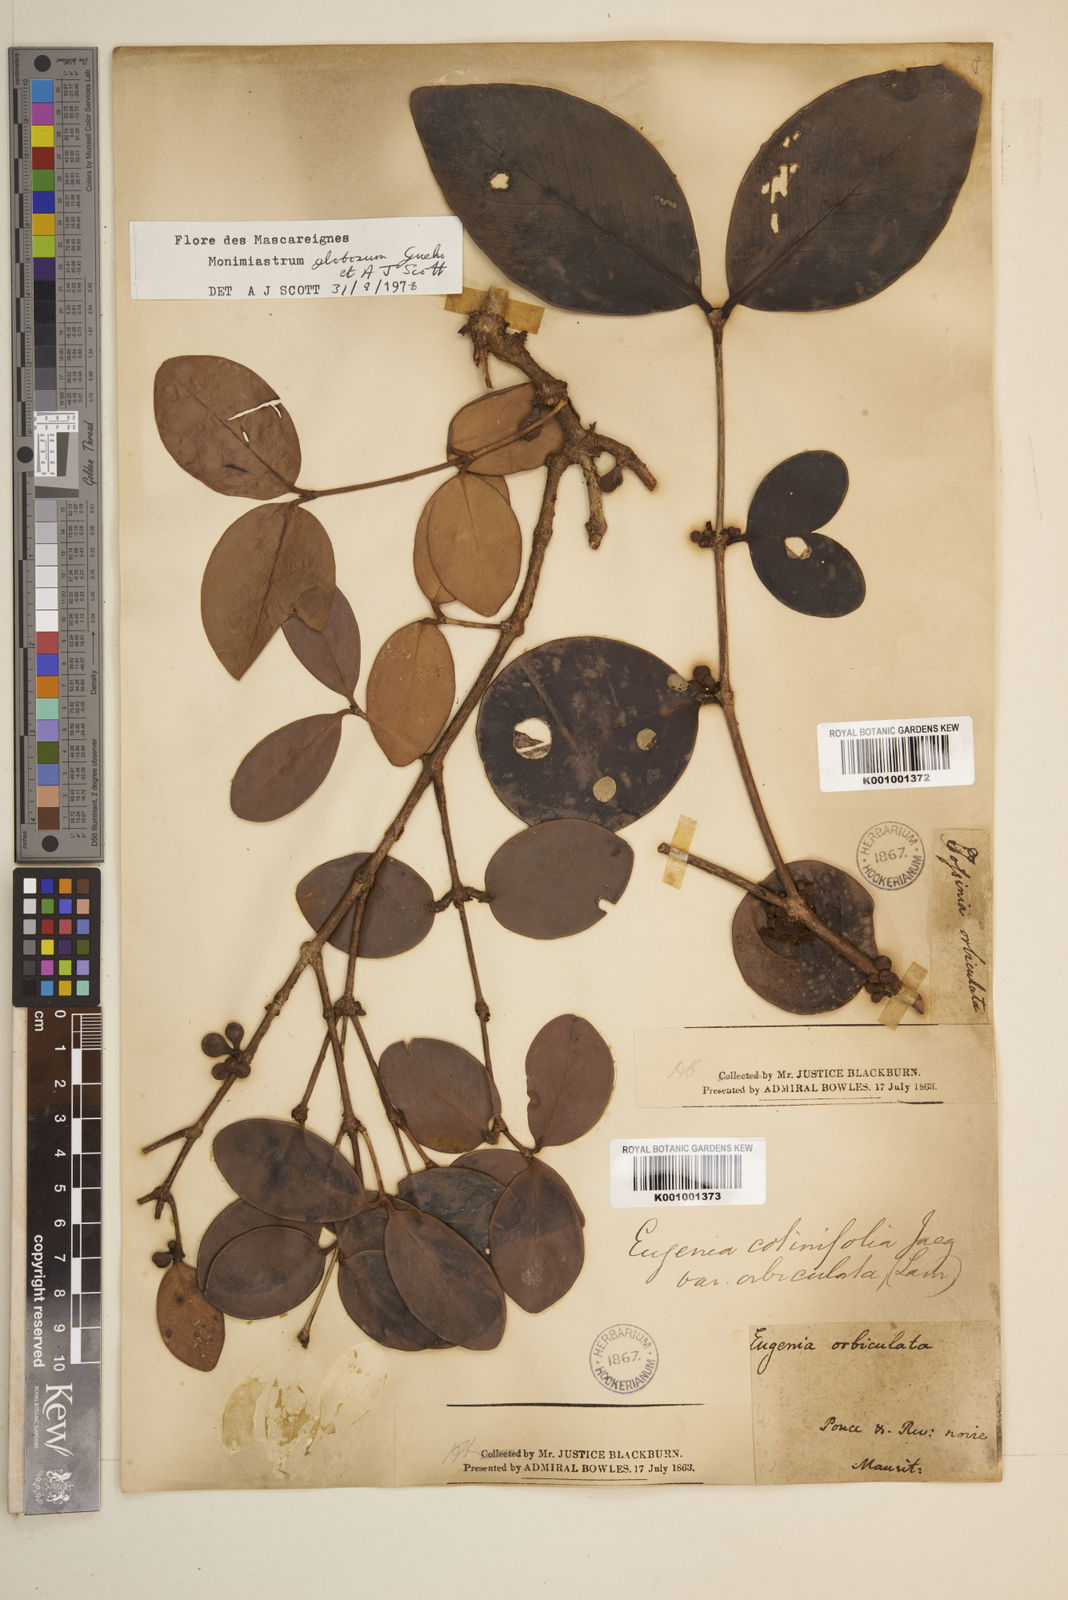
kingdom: Plantae
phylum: Tracheophyta
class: Magnoliopsida
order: Myrtales
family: Myrtaceae
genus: Eugenia
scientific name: Eugenia kanakana
